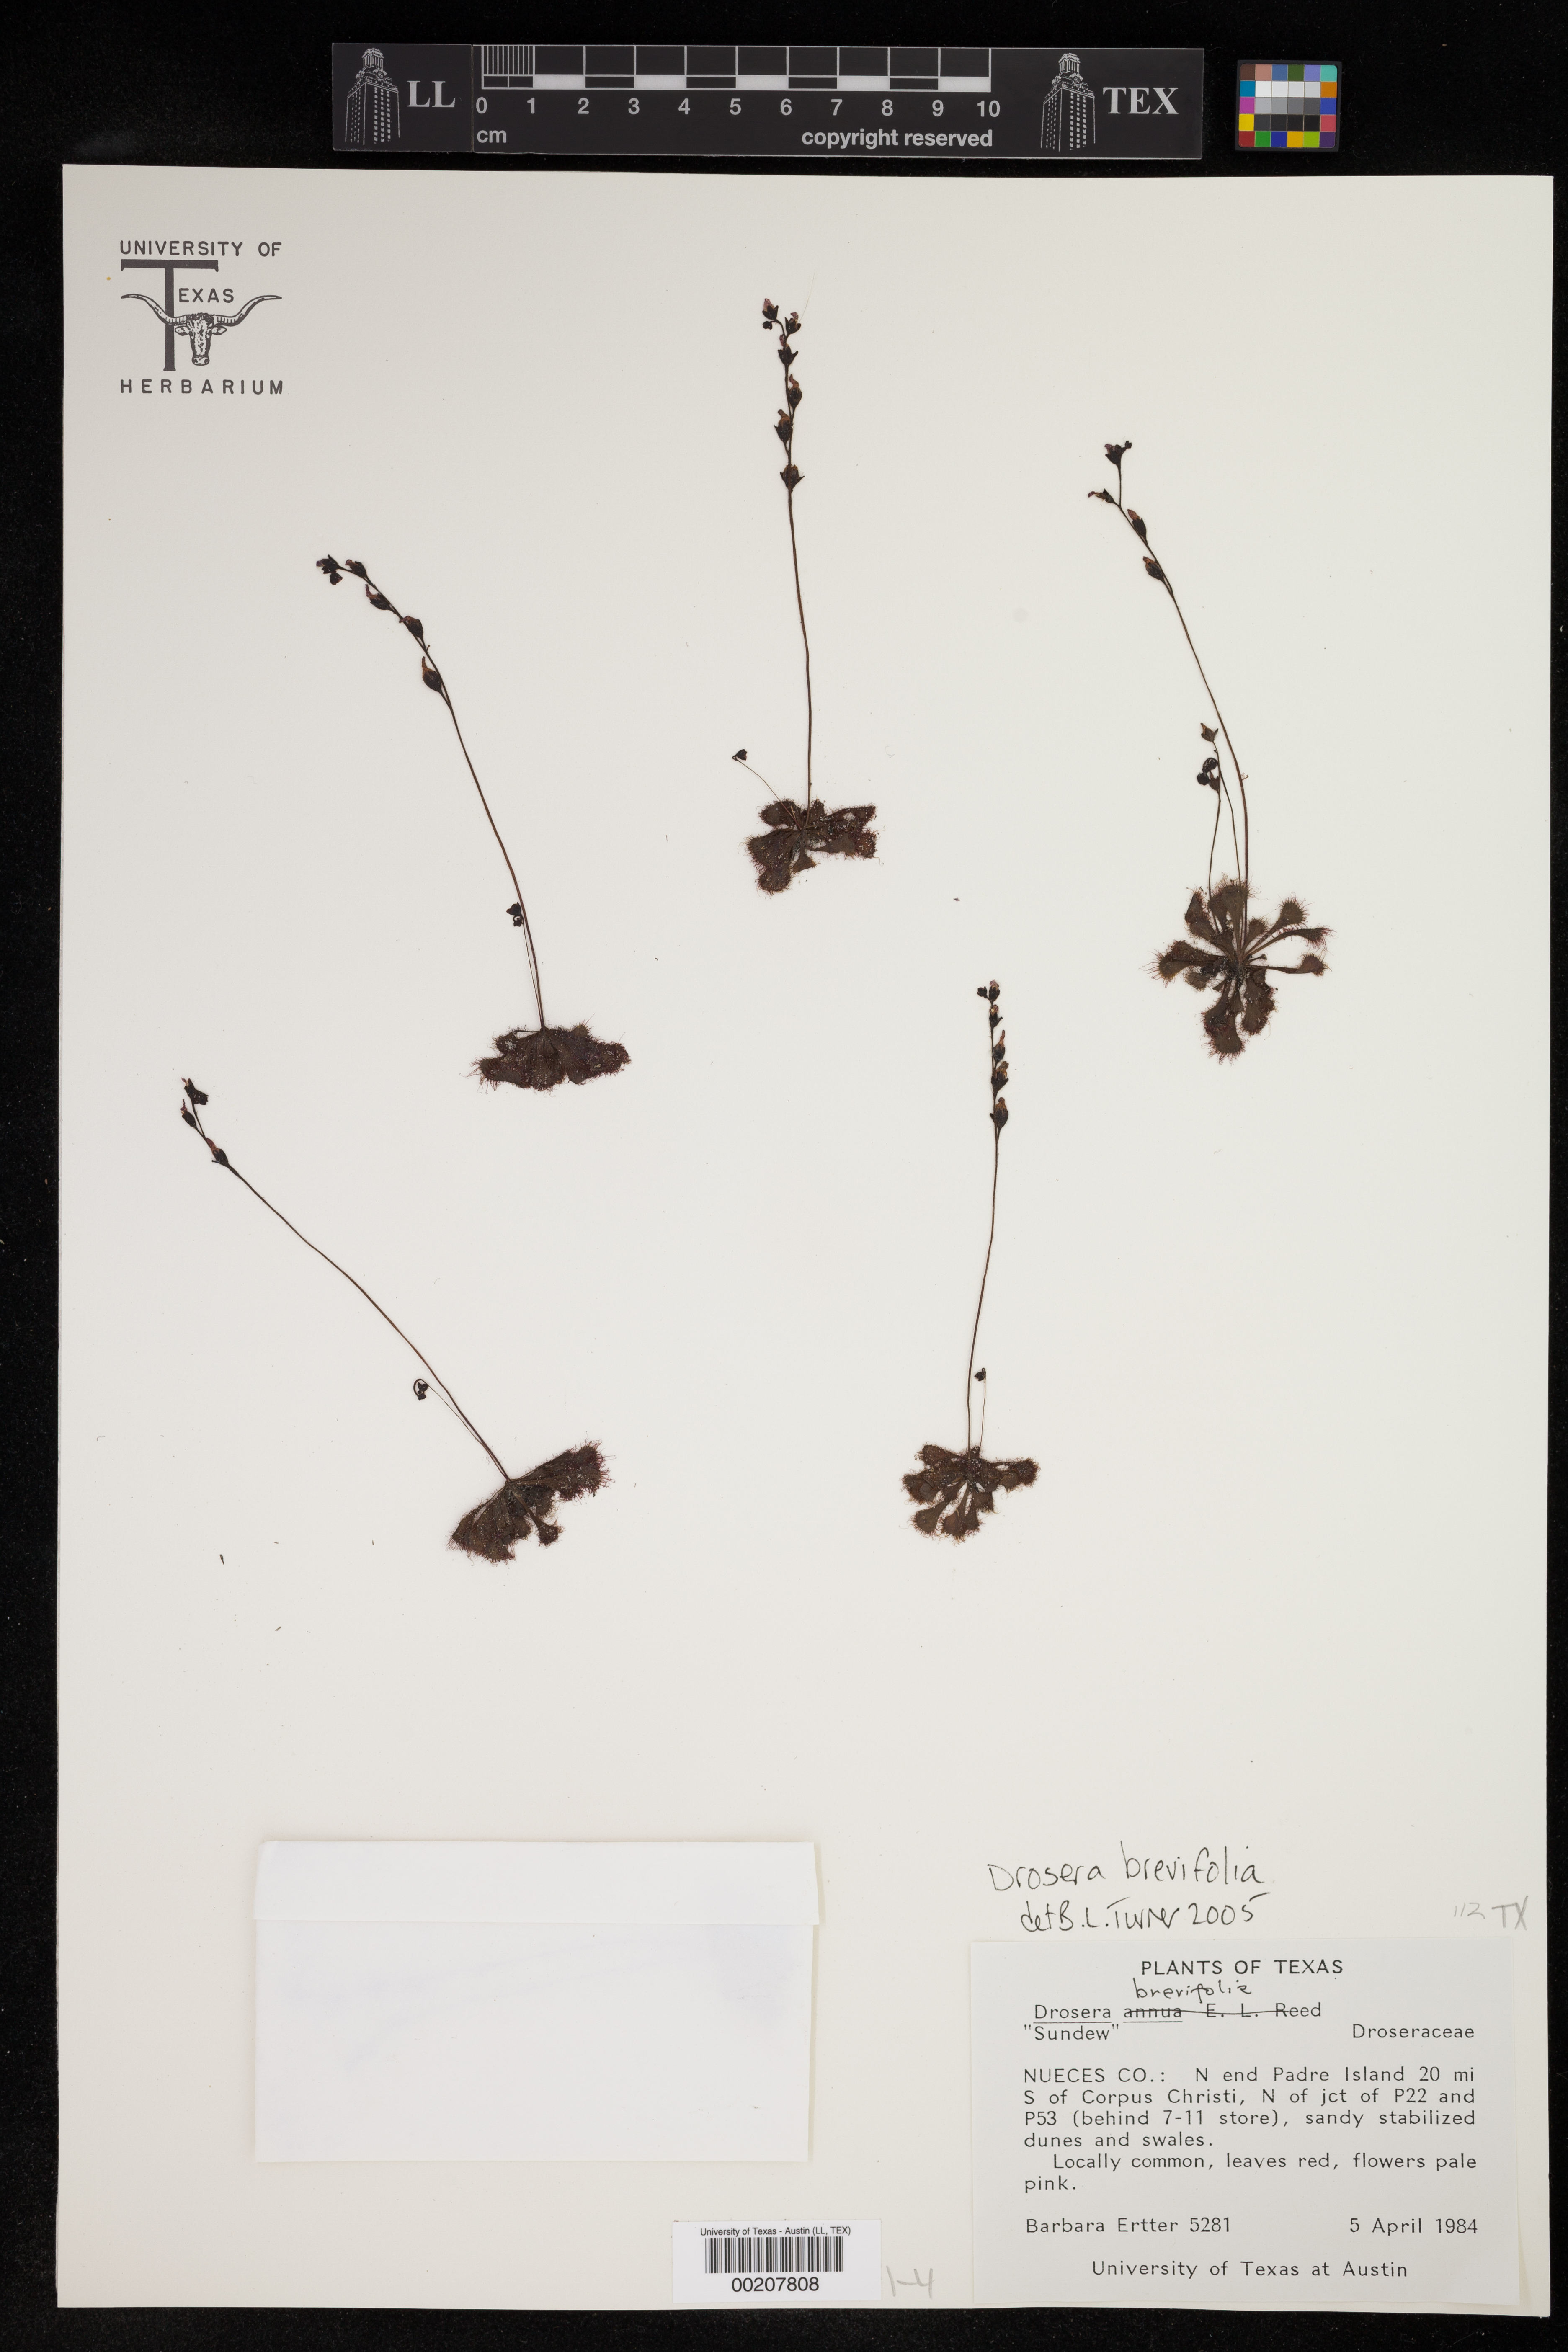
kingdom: Plantae
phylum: Tracheophyta
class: Magnoliopsida
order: Caryophyllales
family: Droseraceae
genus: Drosera
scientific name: Drosera brevifolia
